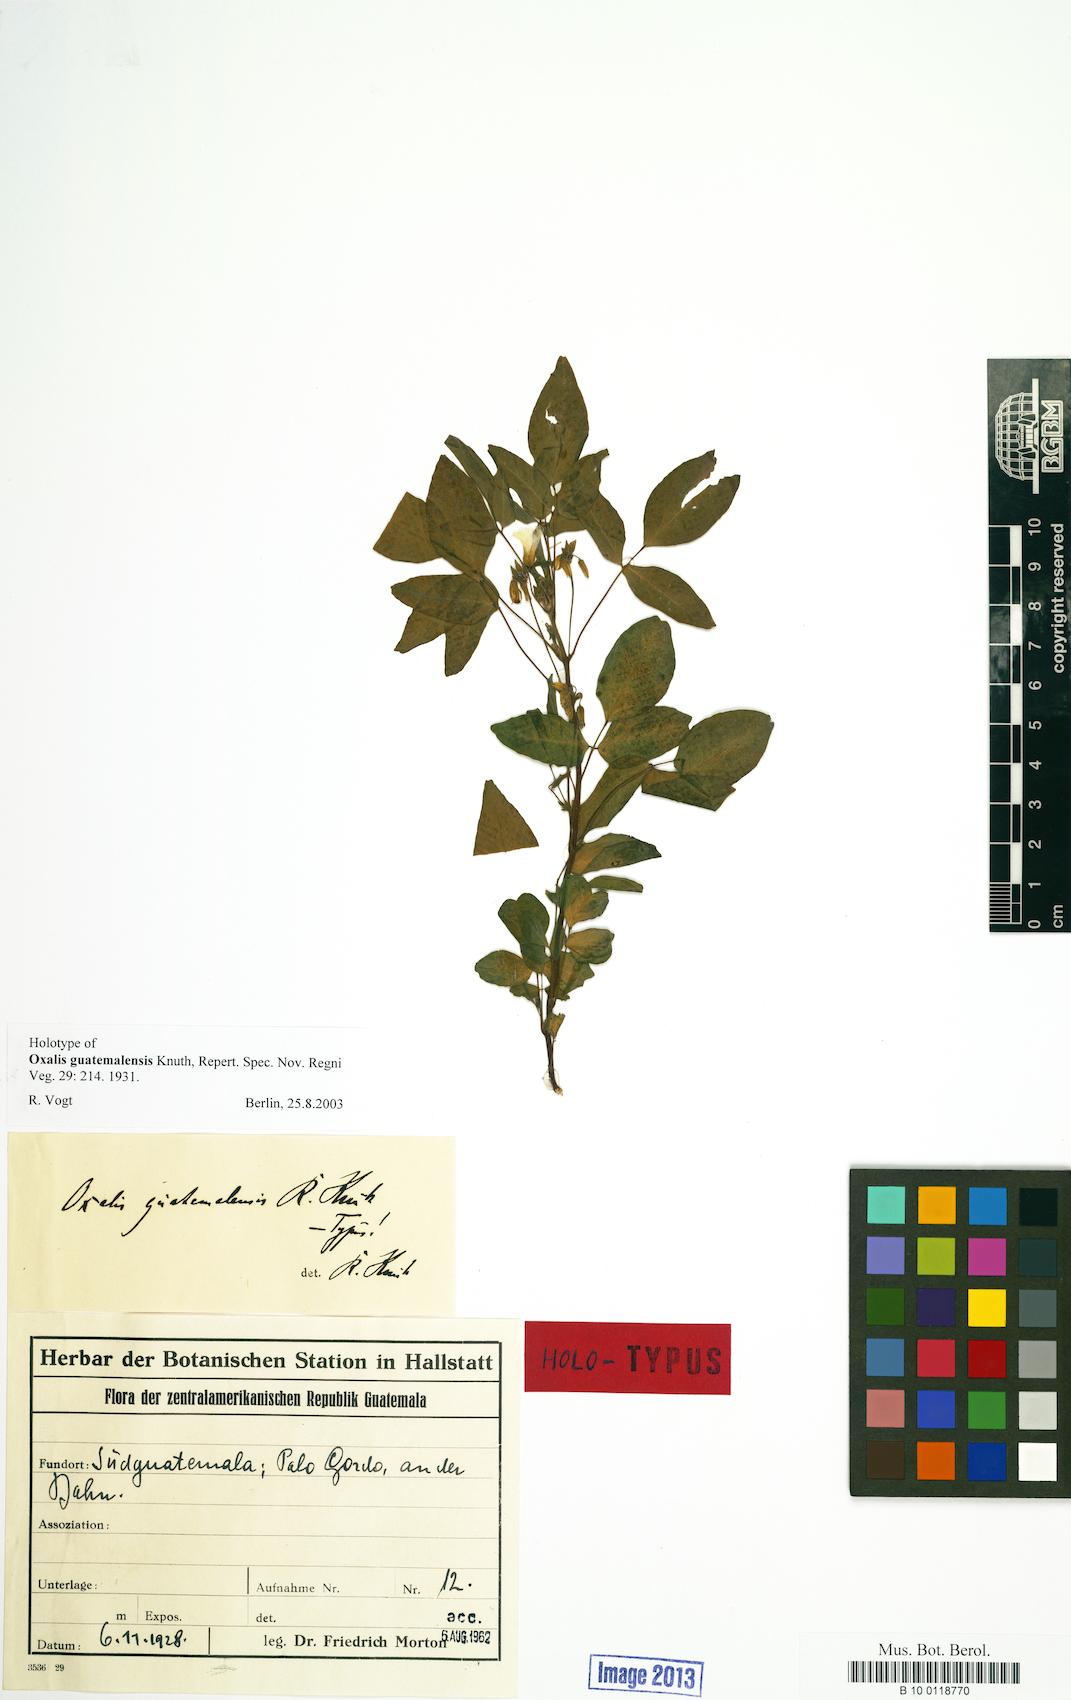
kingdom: Plantae
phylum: Tracheophyta
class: Magnoliopsida
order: Oxalidales
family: Oxalidaceae
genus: Oxalis
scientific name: Oxalis frutescens
